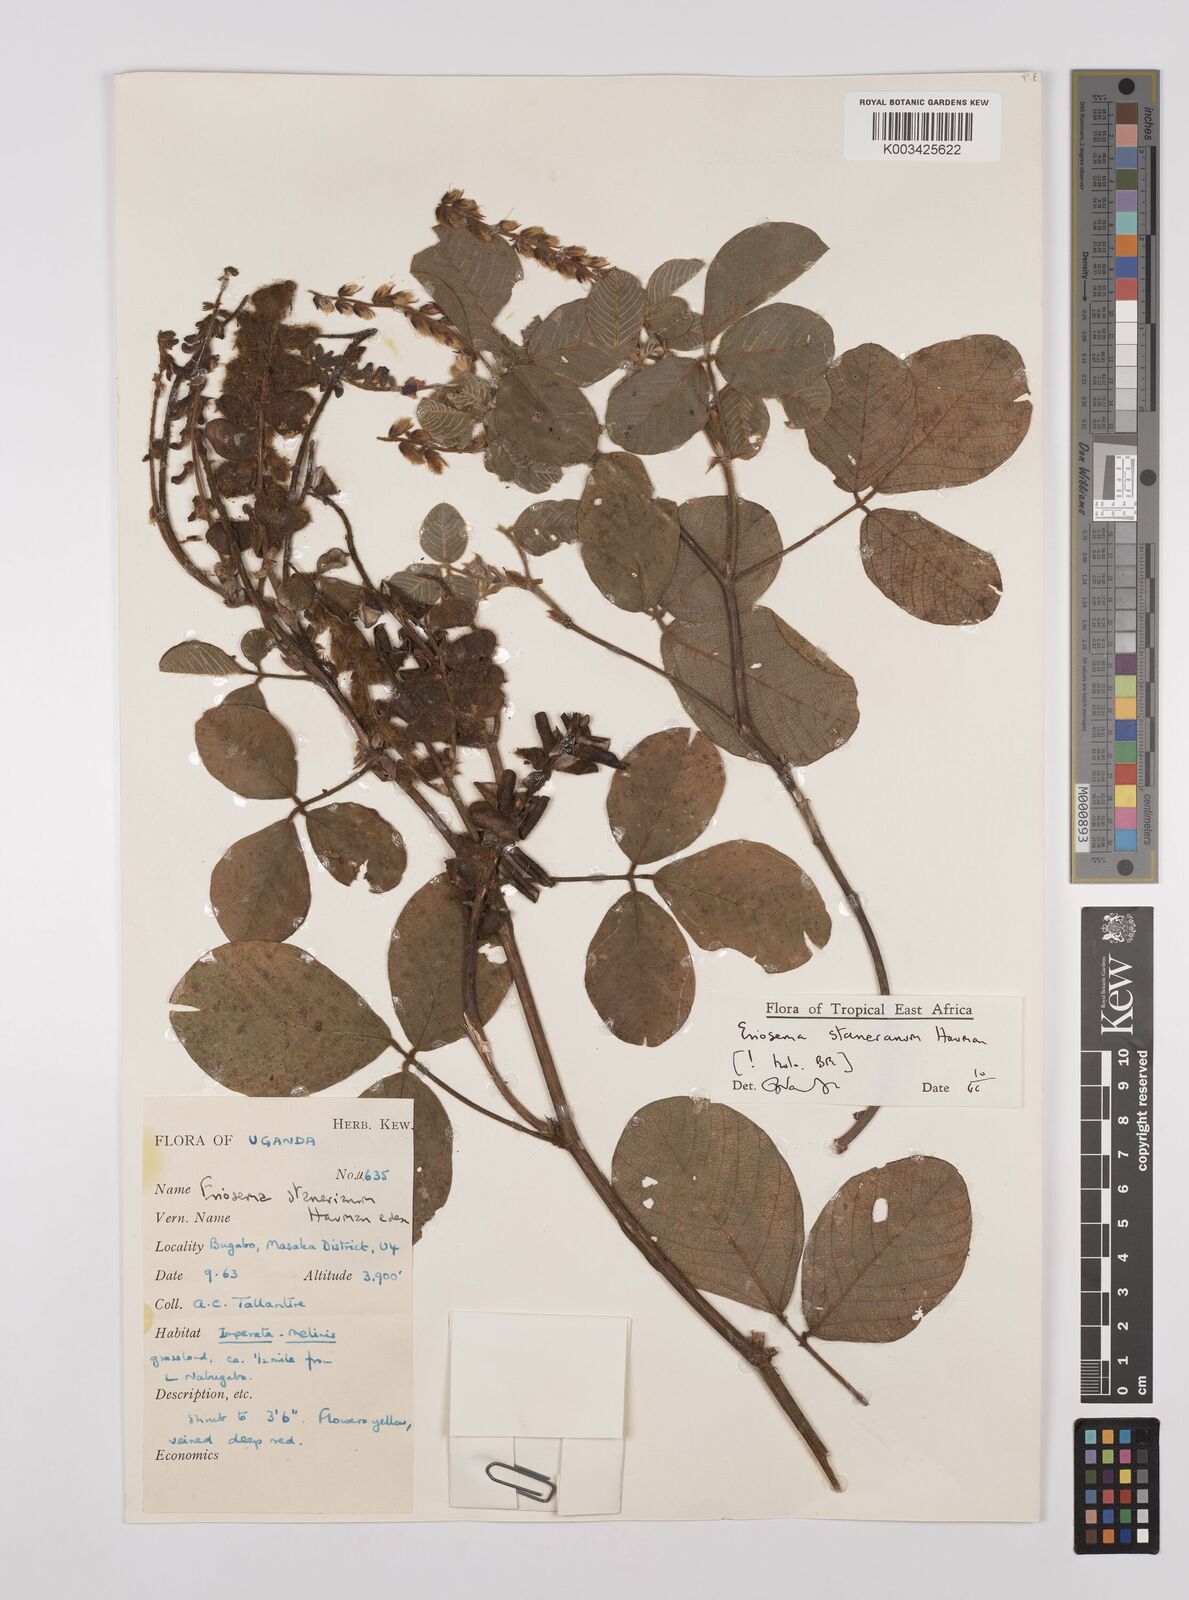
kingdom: Plantae
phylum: Tracheophyta
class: Magnoliopsida
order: Fabales
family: Fabaceae
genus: Eriosema
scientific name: Eriosema angolense
